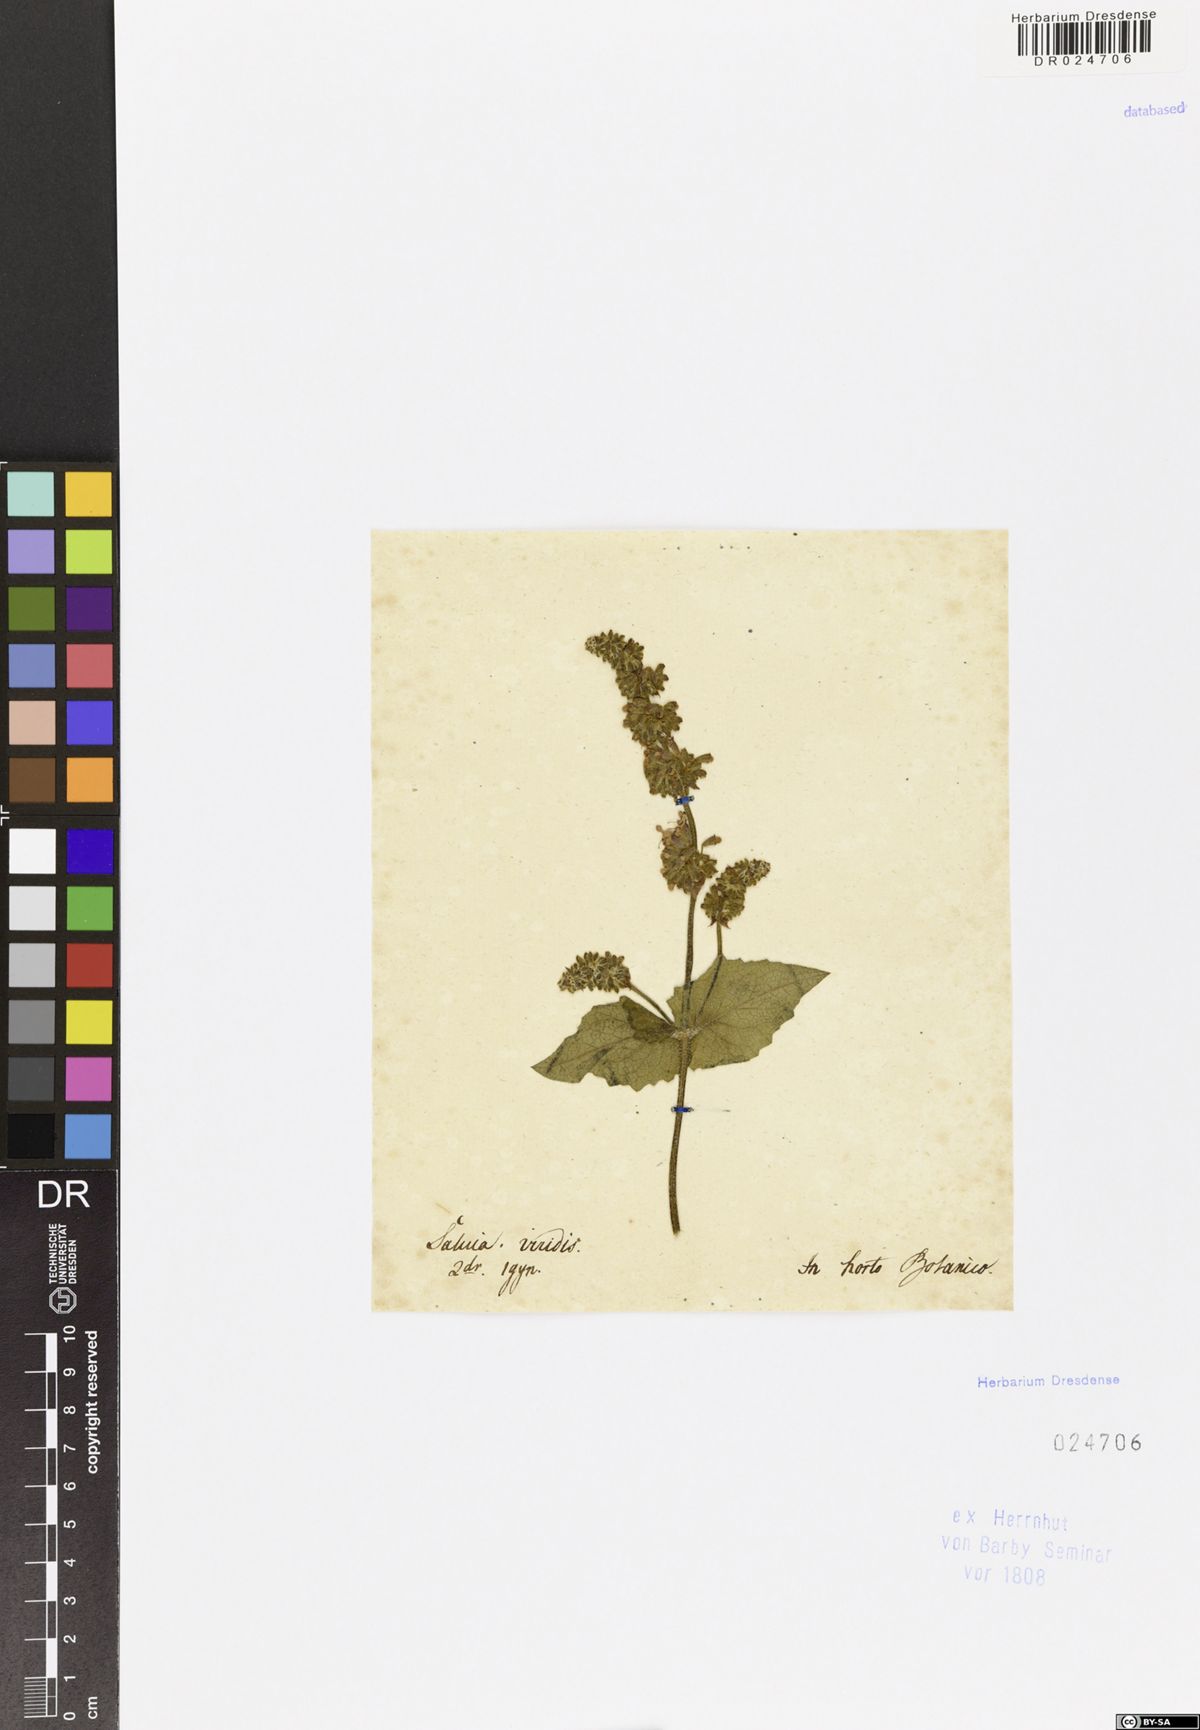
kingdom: Plantae
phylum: Tracheophyta
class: Magnoliopsida
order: Lamiales
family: Lamiaceae
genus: Salvia
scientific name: Salvia verticillata
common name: Whorled clary
